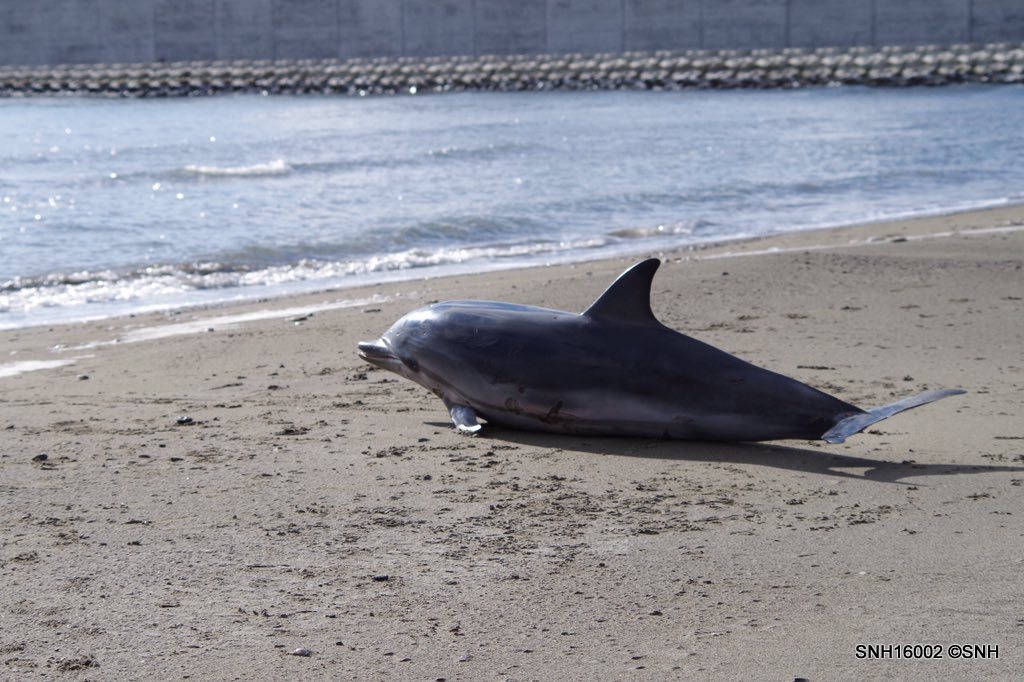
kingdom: Animalia
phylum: Chordata
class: Mammalia
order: Cetacea
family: Delphinidae
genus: Stenella
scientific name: Stenella coeruleoalba
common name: Striped dolphin
